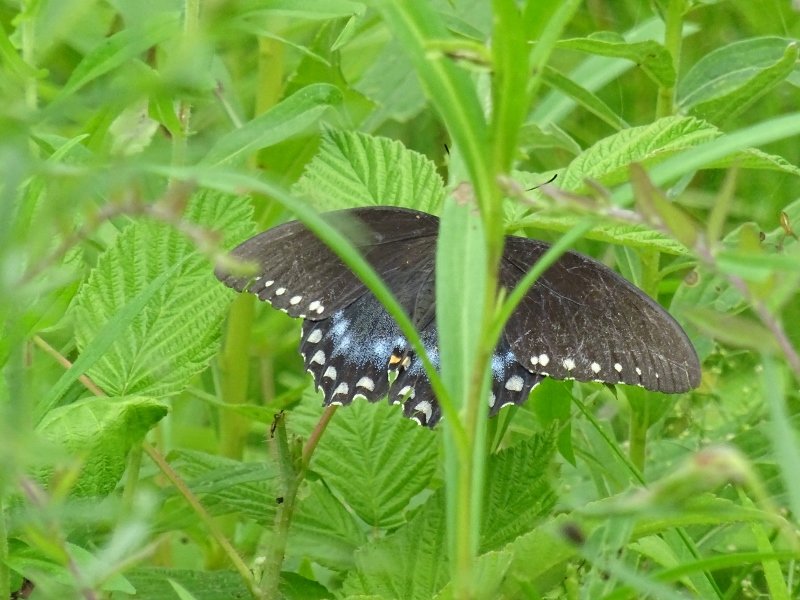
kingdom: Animalia
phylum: Arthropoda
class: Insecta
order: Lepidoptera
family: Papilionidae
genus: Pterourus
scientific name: Pterourus troilus
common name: Spicebush Swallowtail
